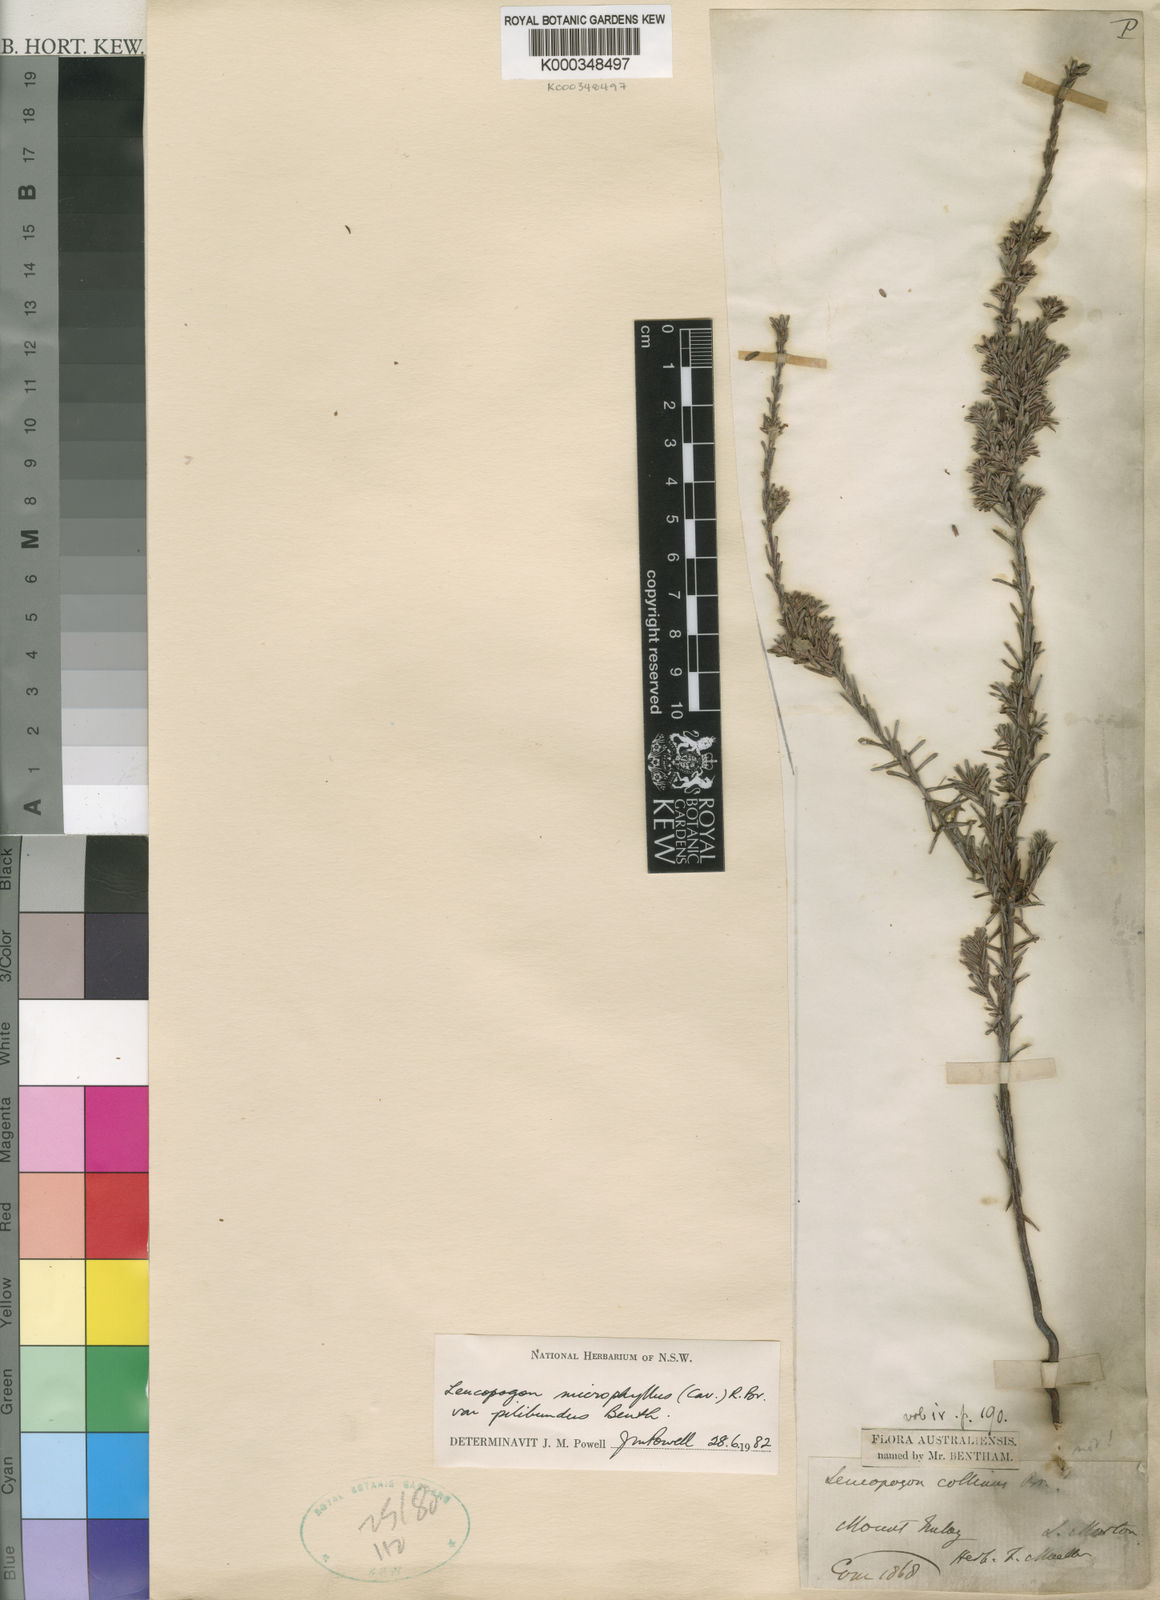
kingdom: Plantae
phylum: Tracheophyta
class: Magnoliopsida
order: Ericales
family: Ericaceae
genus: Leucopogon
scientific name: Leucopogon microphyllus
